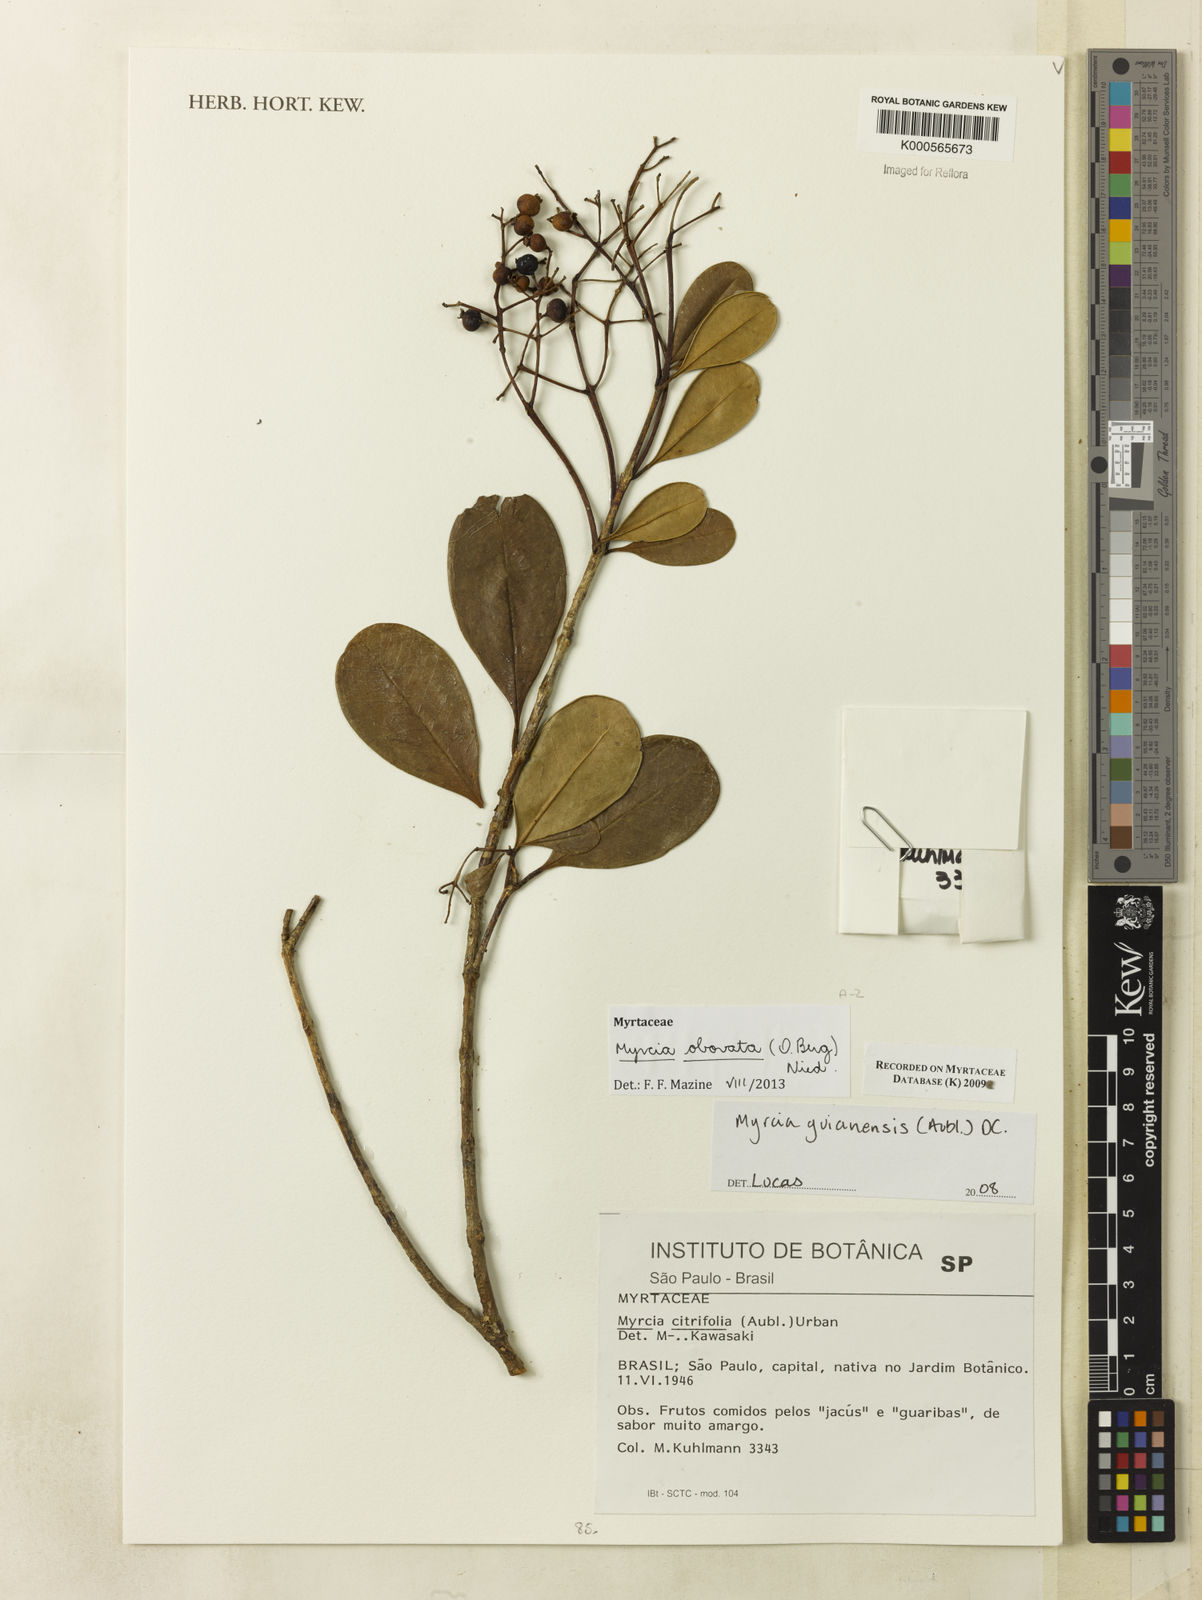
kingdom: Plantae
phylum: Tracheophyta
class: Magnoliopsida
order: Myrtales
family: Myrtaceae
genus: Myrcia
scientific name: Myrcia coelosepala
